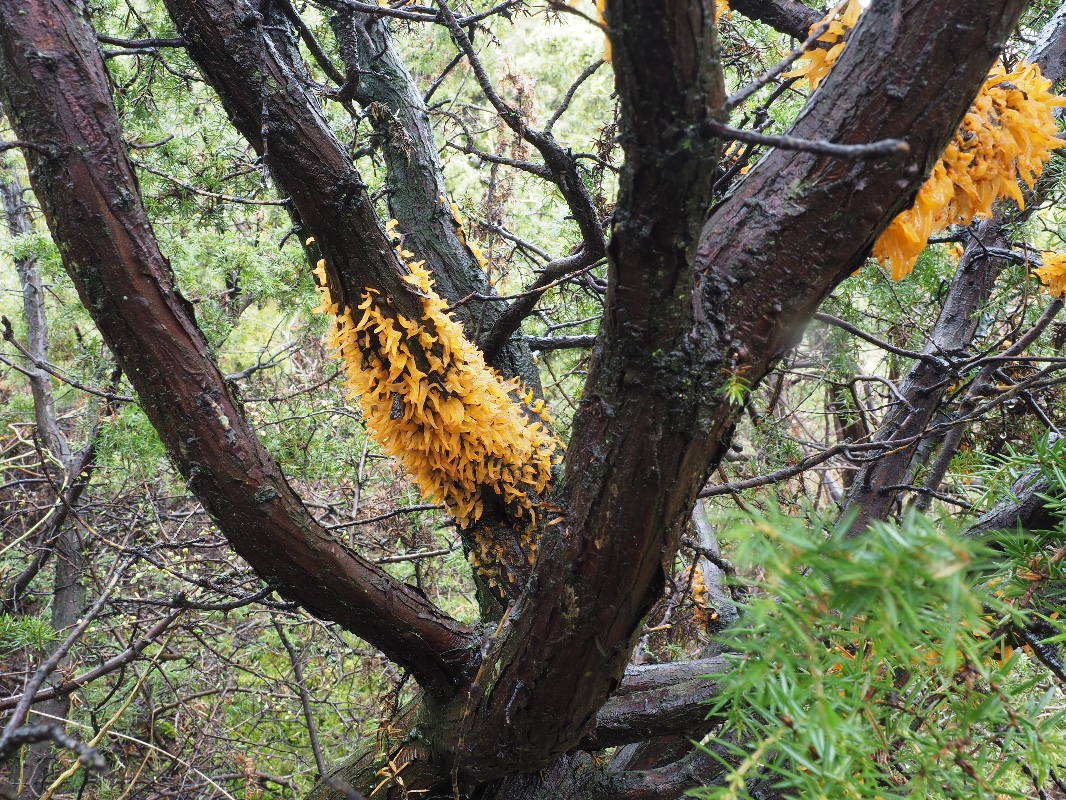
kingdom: Fungi
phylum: Basidiomycota
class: Pucciniomycetes
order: Pucciniales
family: Gymnosporangiaceae
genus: Gymnosporangium
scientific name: Gymnosporangium clavariiforme
